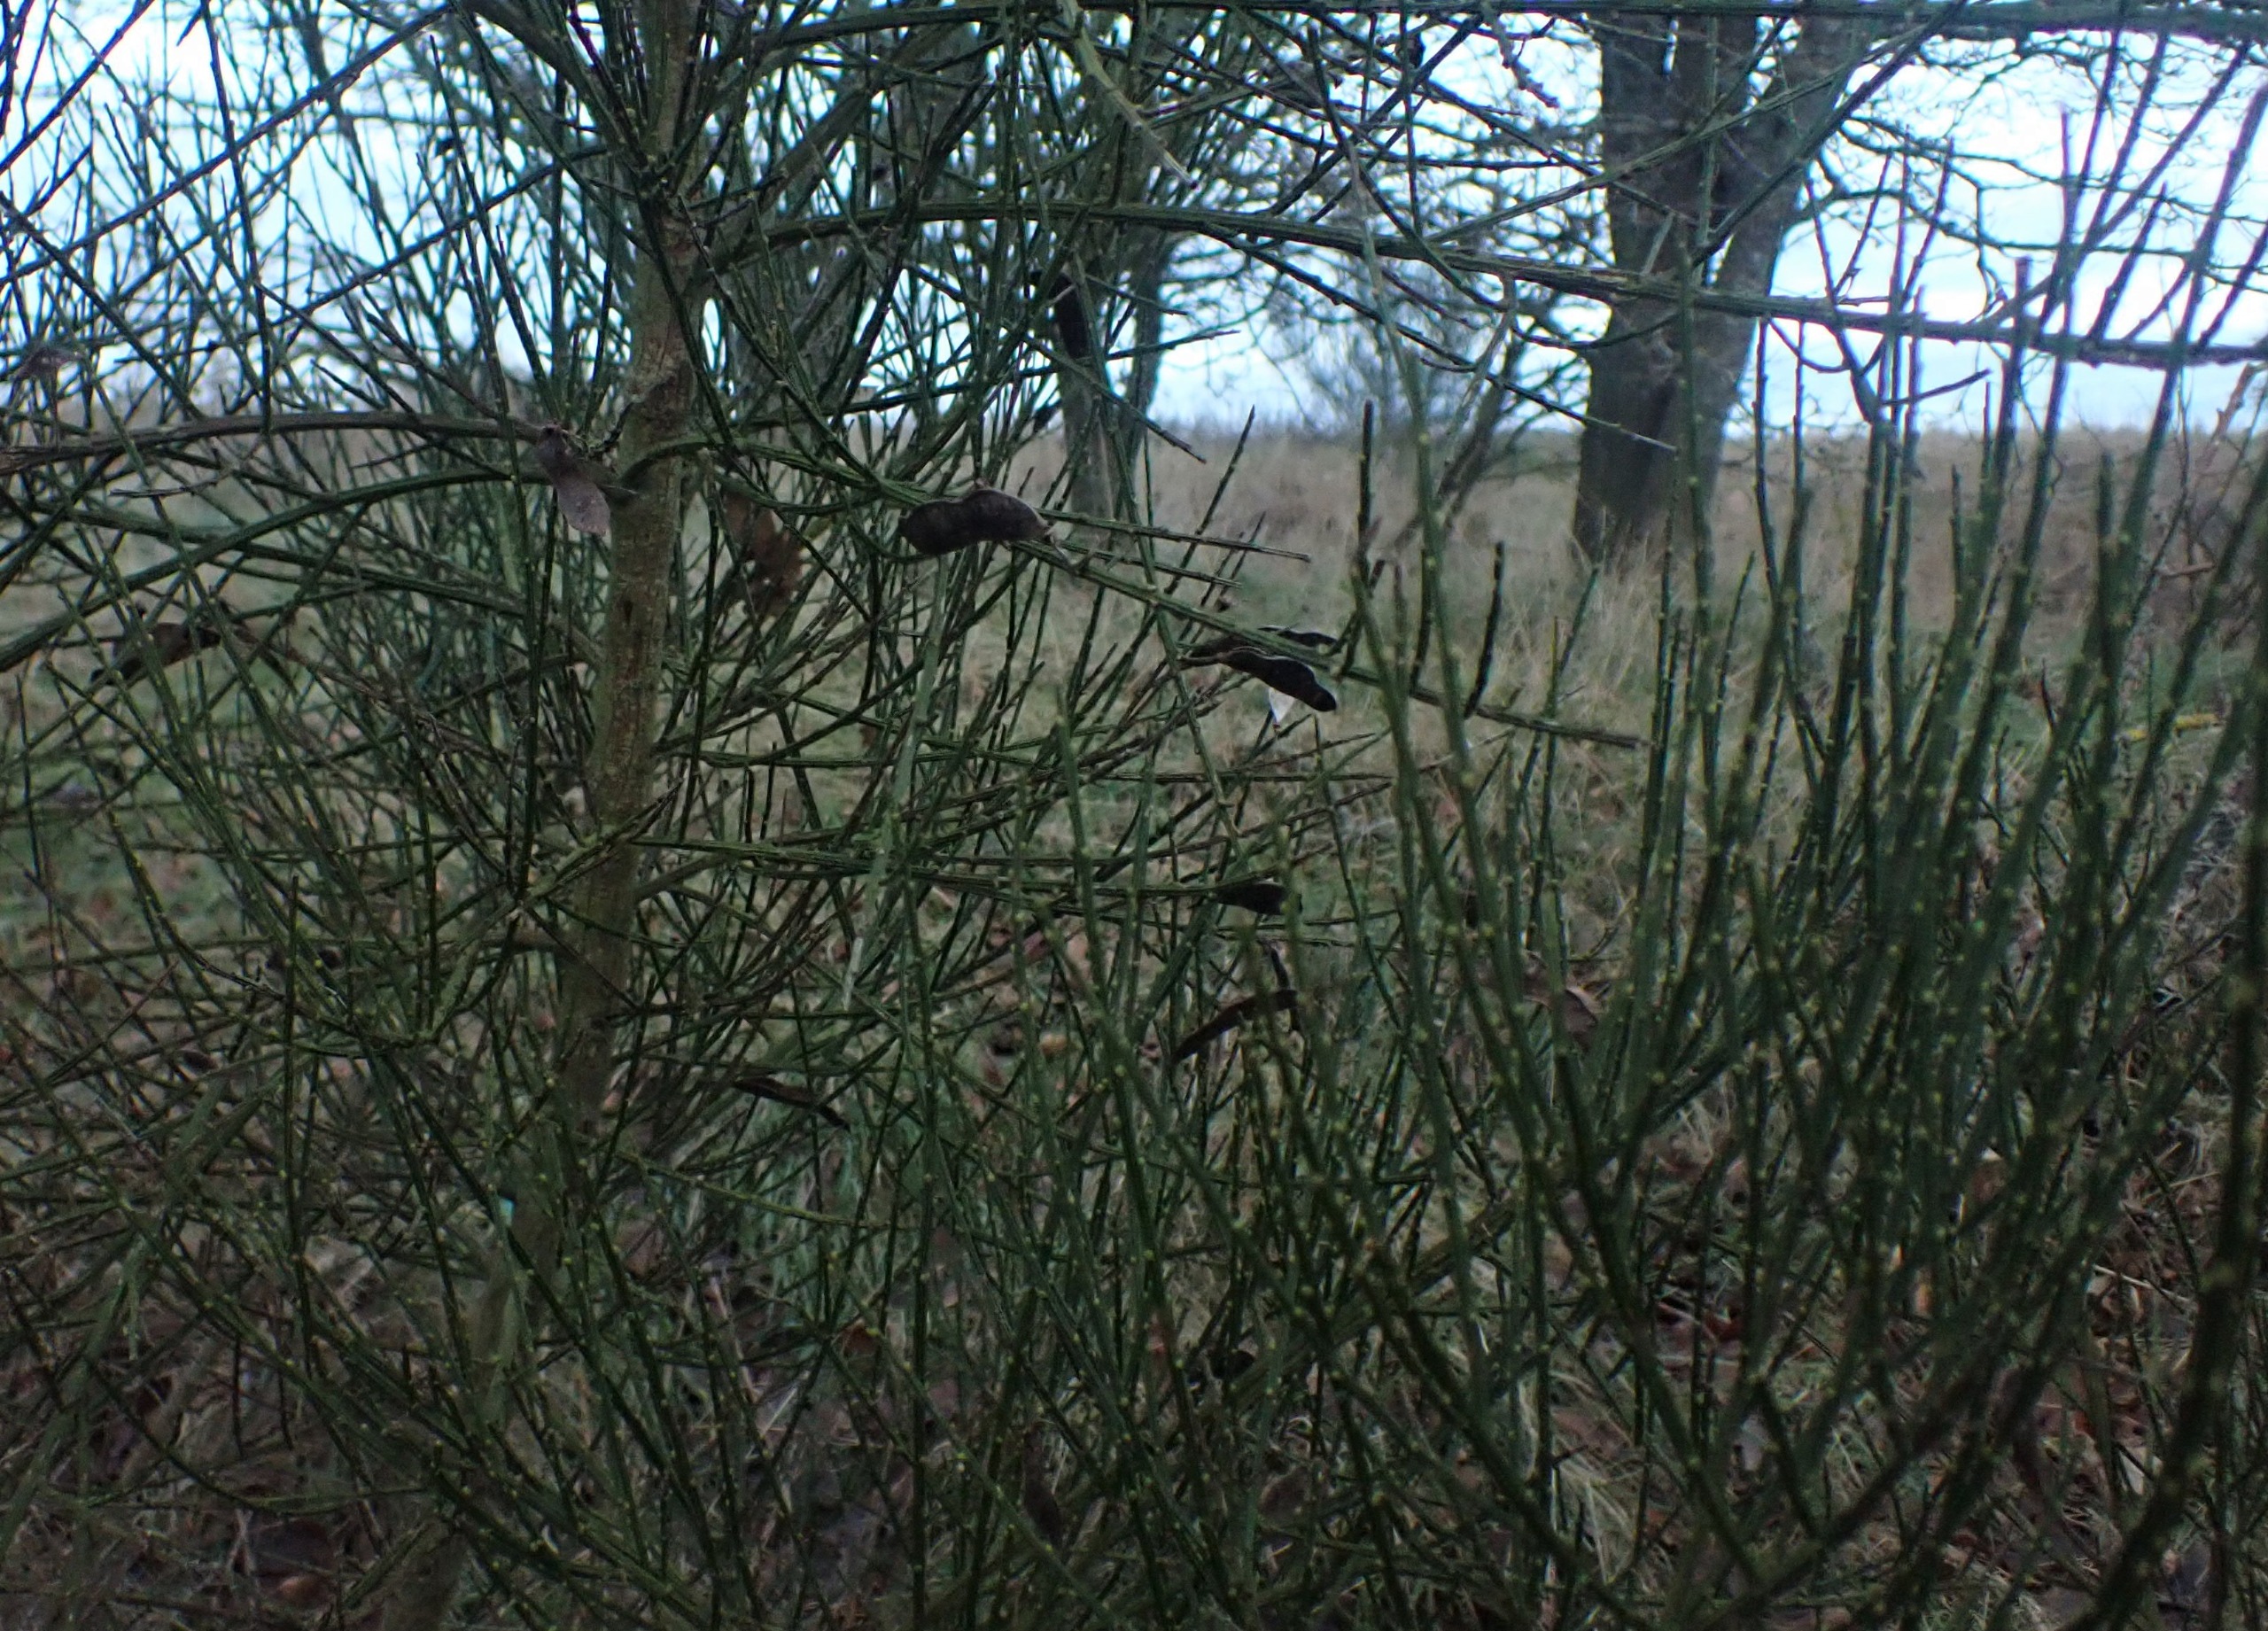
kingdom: Plantae
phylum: Tracheophyta
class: Magnoliopsida
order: Fabales
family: Fabaceae
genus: Cytisus
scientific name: Cytisus scoparius
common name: Almindelig gyvel
